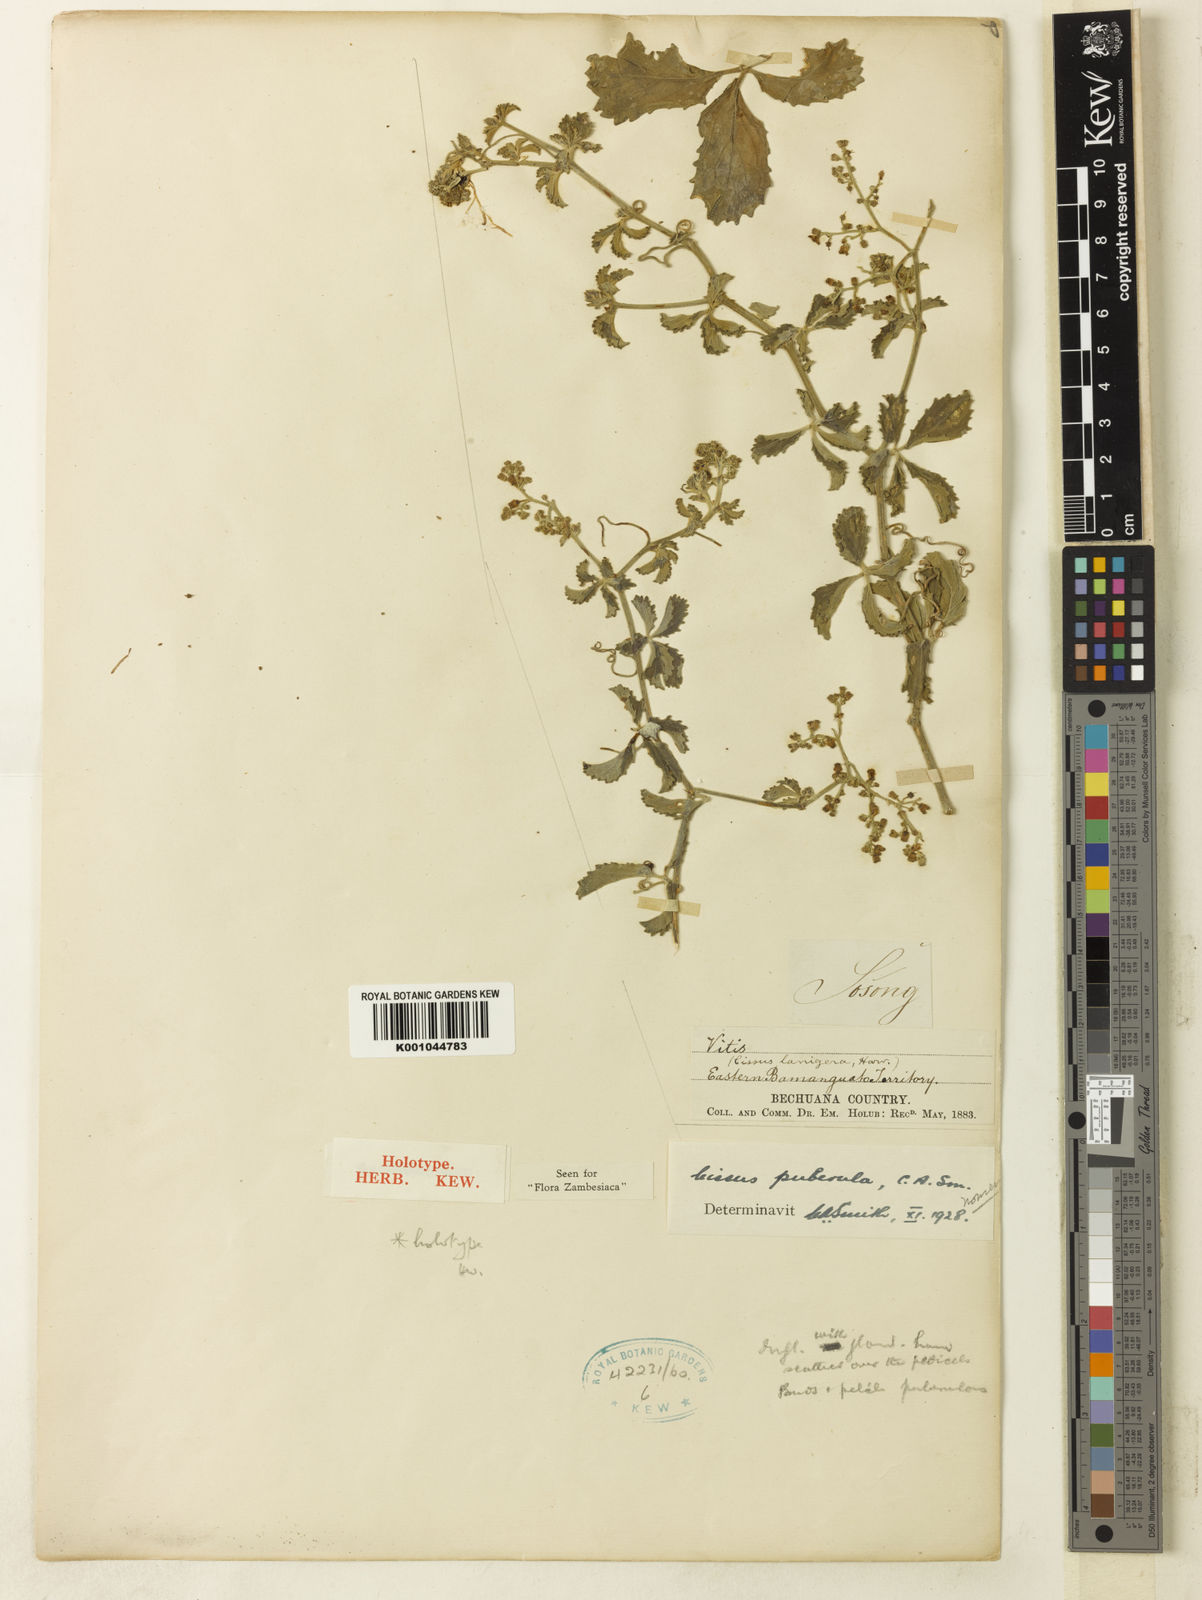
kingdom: Plantae
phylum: Tracheophyta
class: Magnoliopsida
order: Vitales
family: Vitaceae
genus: Cyphostemma
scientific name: Cyphostemma puberulum
